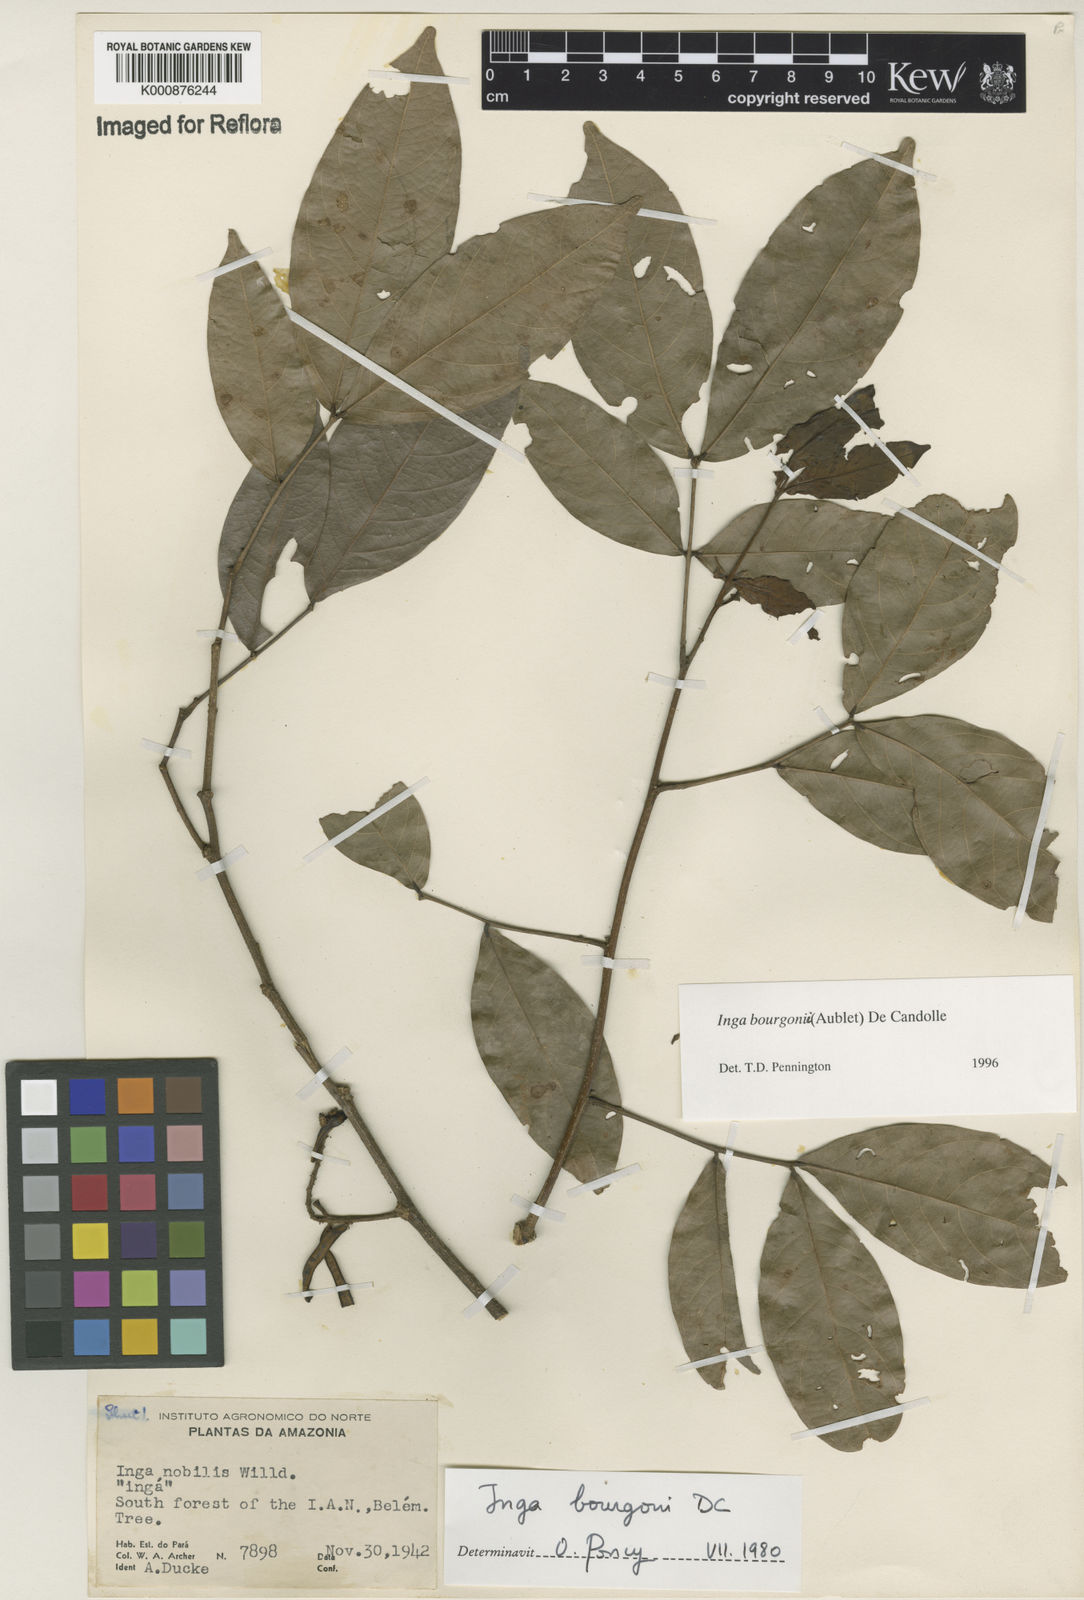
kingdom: Plantae
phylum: Tracheophyta
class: Magnoliopsida
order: Fabales
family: Fabaceae
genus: Inga
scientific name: Inga bourgoni
